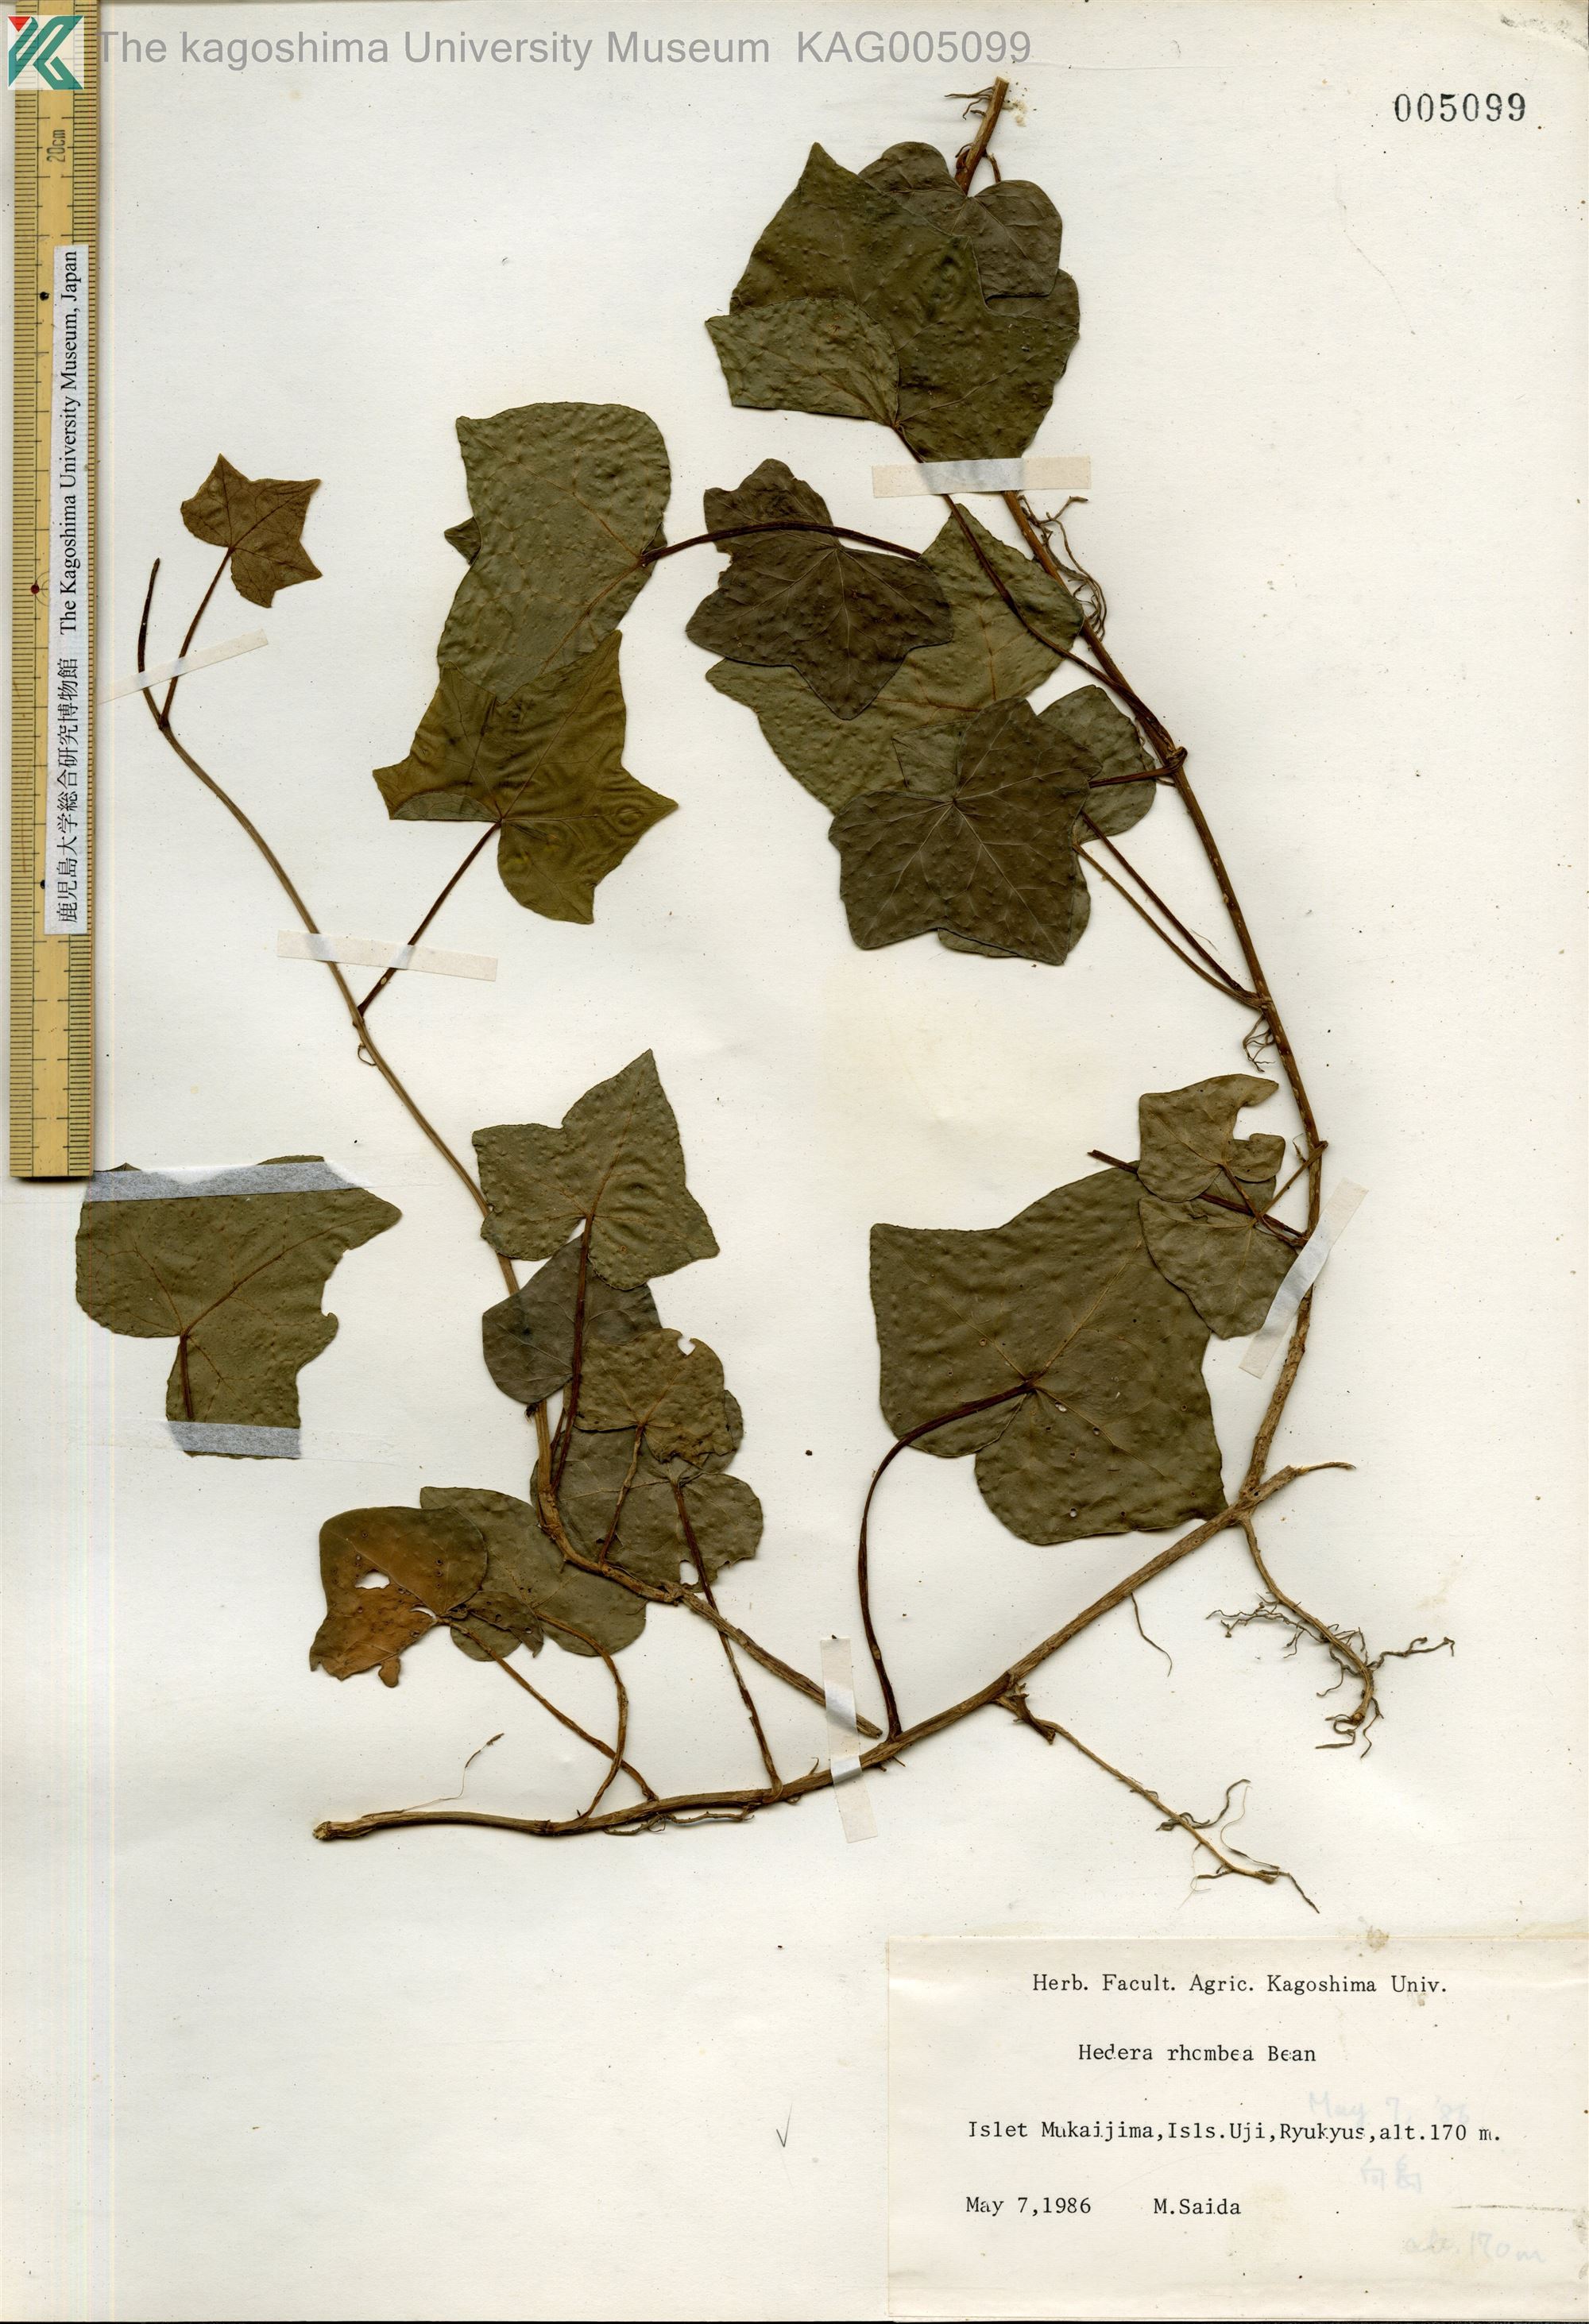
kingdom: Plantae
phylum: Tracheophyta
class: Magnoliopsida
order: Apiales
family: Araliaceae
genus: Hedera
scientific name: Hedera rhombea
